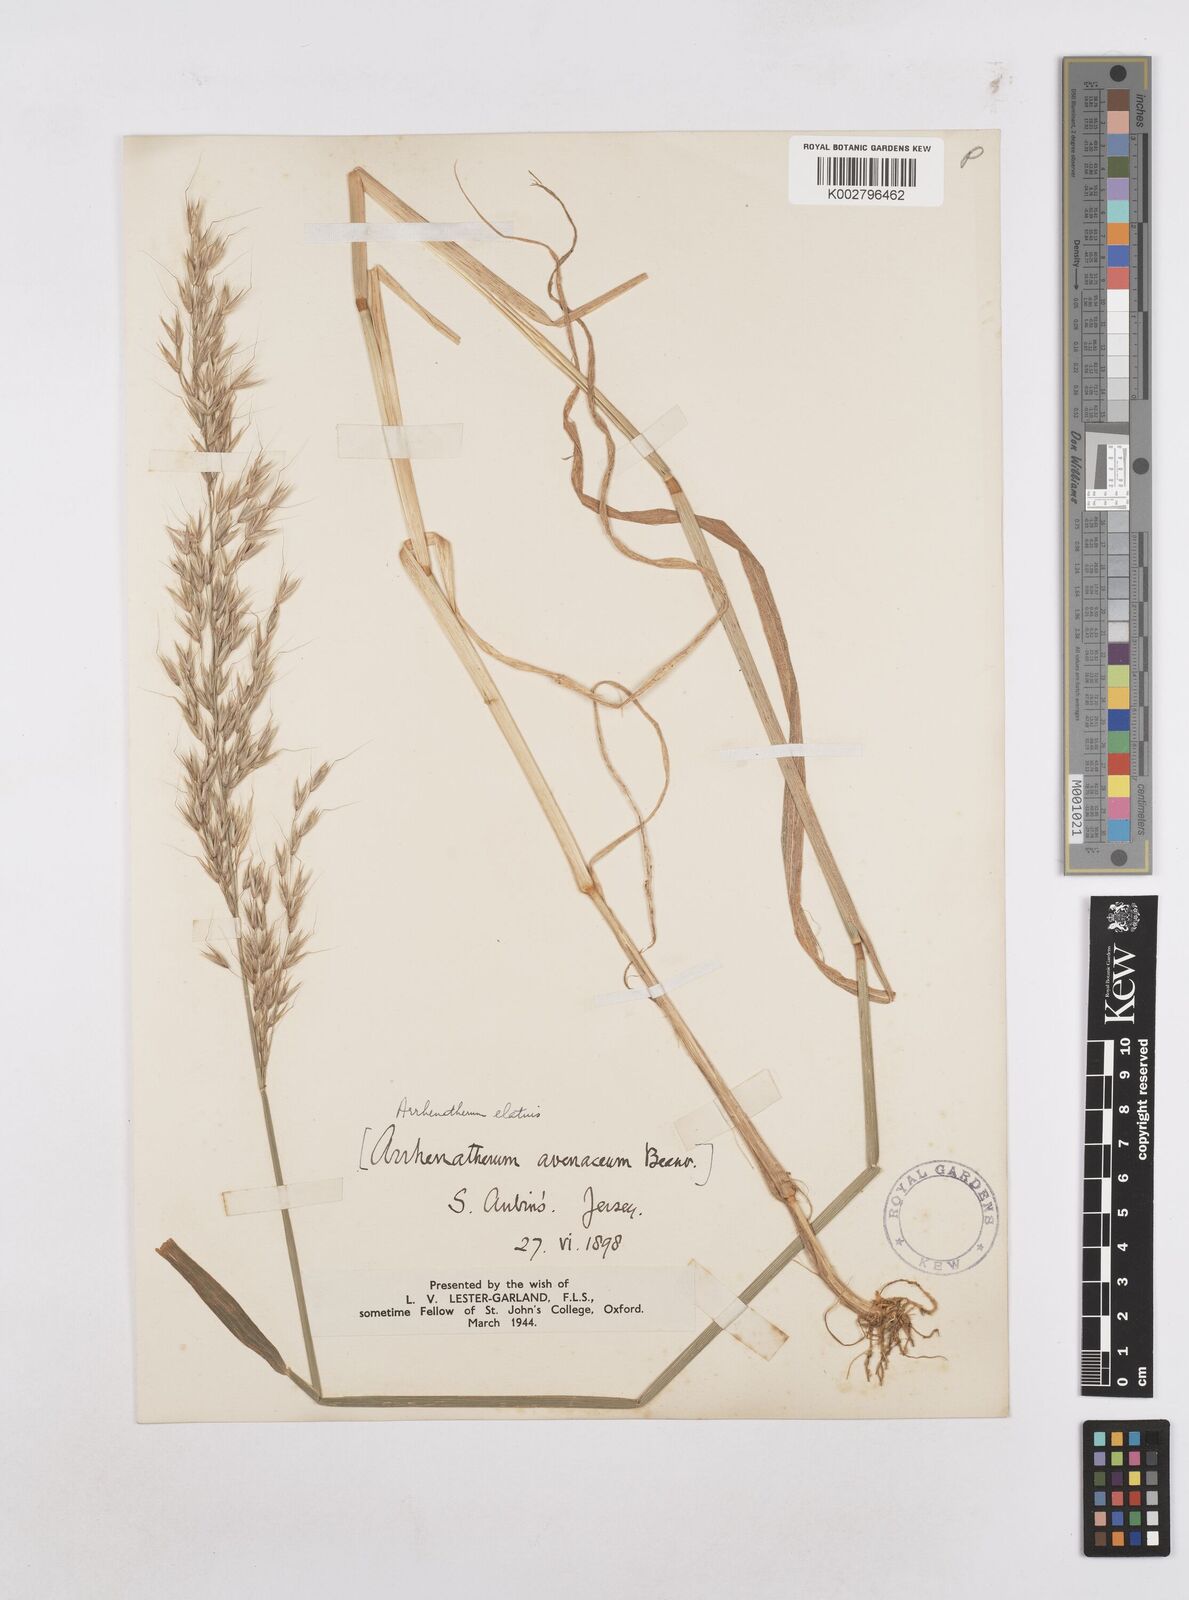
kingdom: Plantae
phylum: Tracheophyta
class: Liliopsida
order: Poales
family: Poaceae
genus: Arrhenatherum
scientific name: Arrhenatherum elatius
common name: Tall oatgrass
